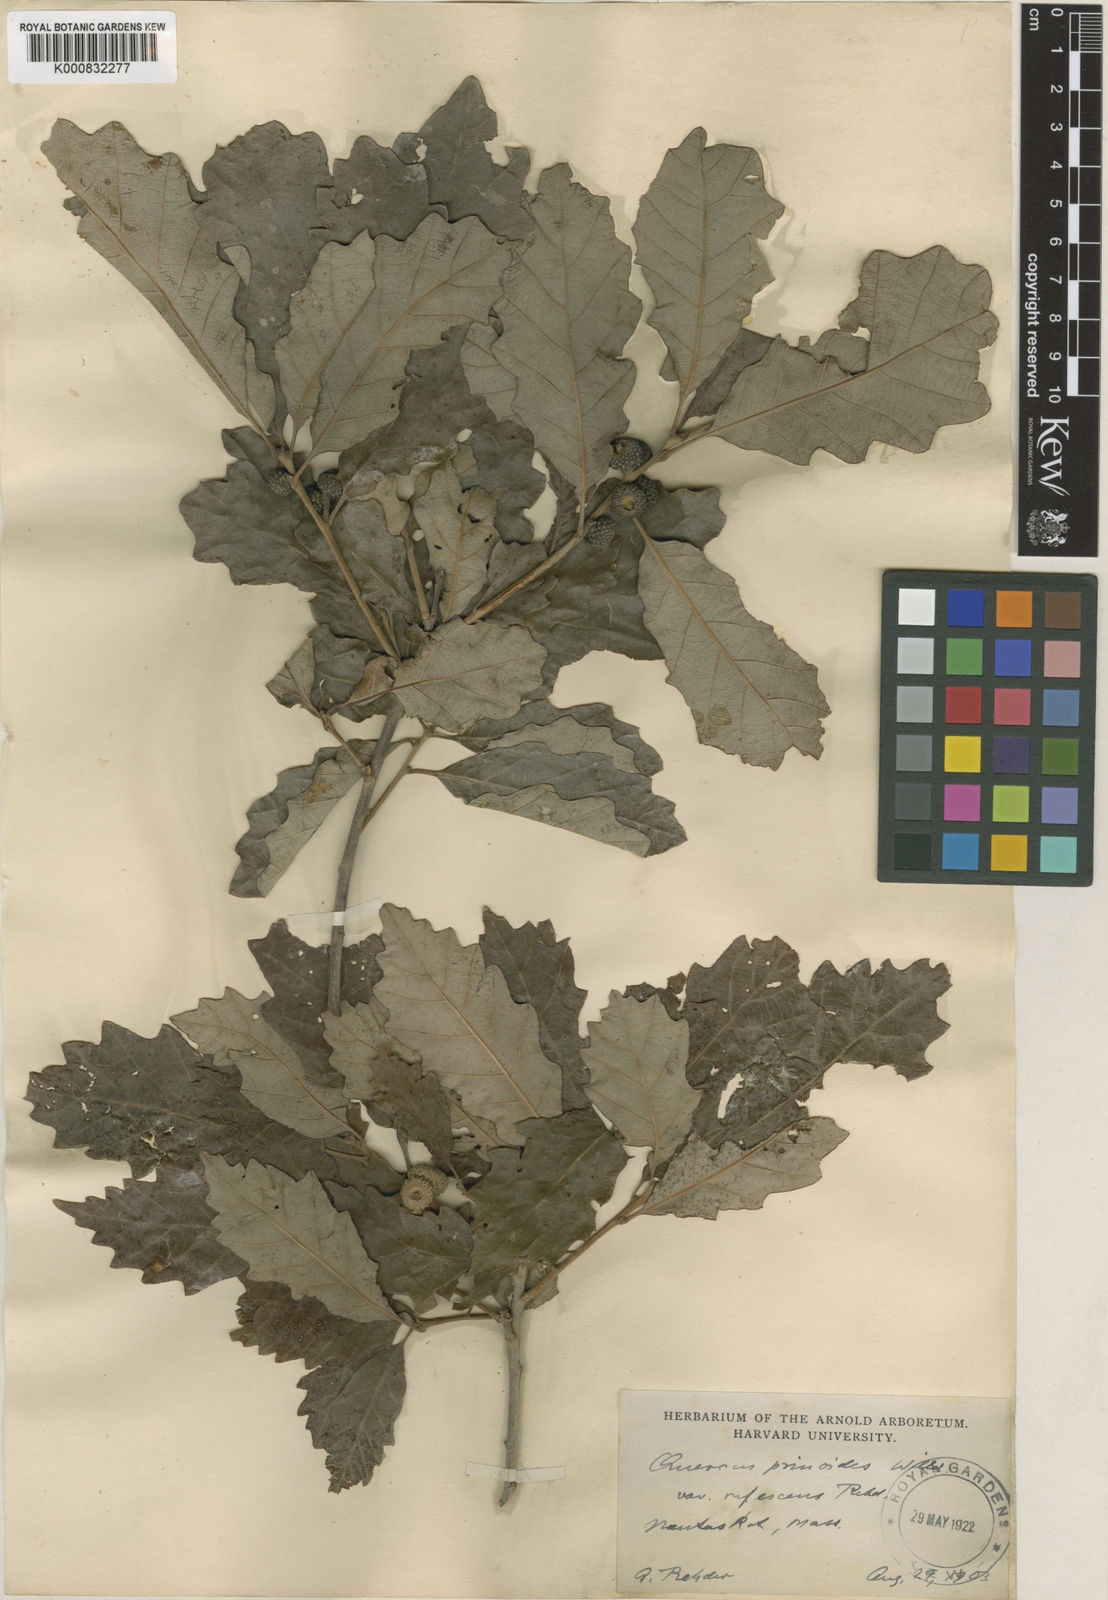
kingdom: Plantae
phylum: Tracheophyta
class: Magnoliopsida
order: Fagales
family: Fagaceae
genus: Quercus
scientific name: Quercus prinoides
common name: Dwarf chinkapin oak
